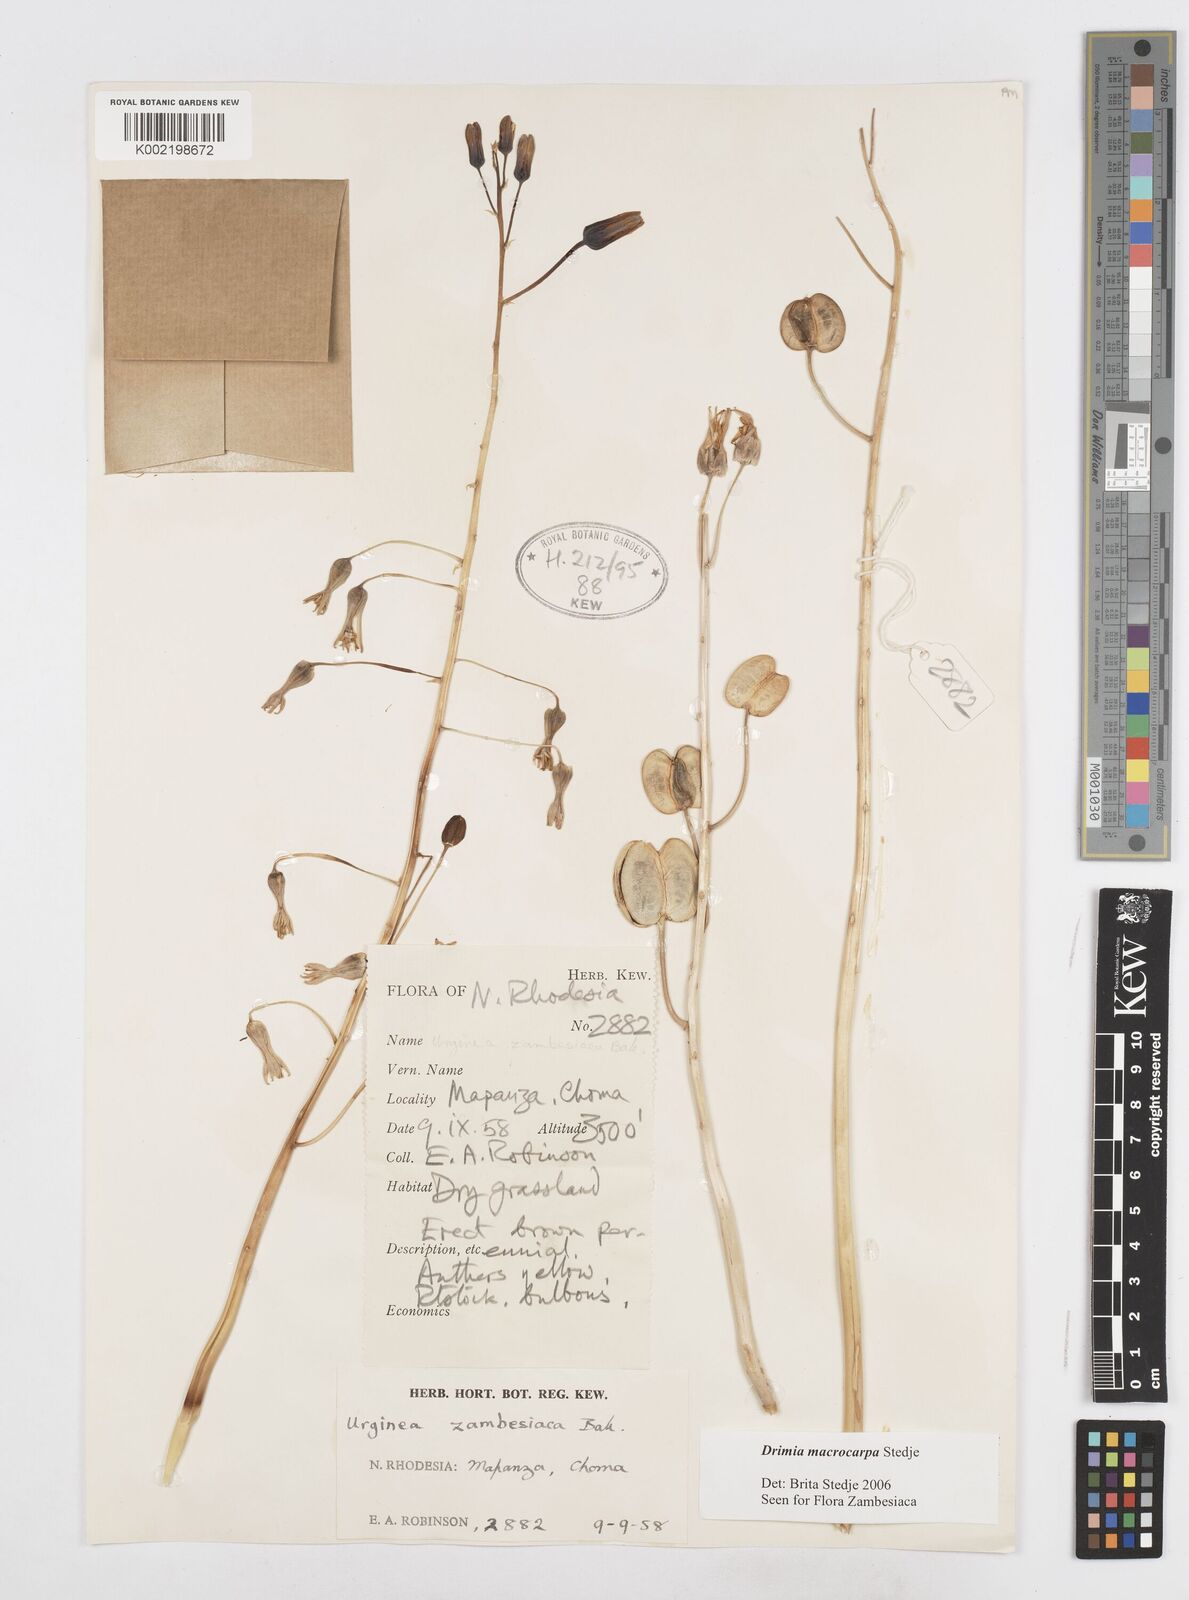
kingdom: Plantae
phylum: Tracheophyta
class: Liliopsida
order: Asparagales
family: Asparagaceae
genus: Drimia
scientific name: Drimia basutica
